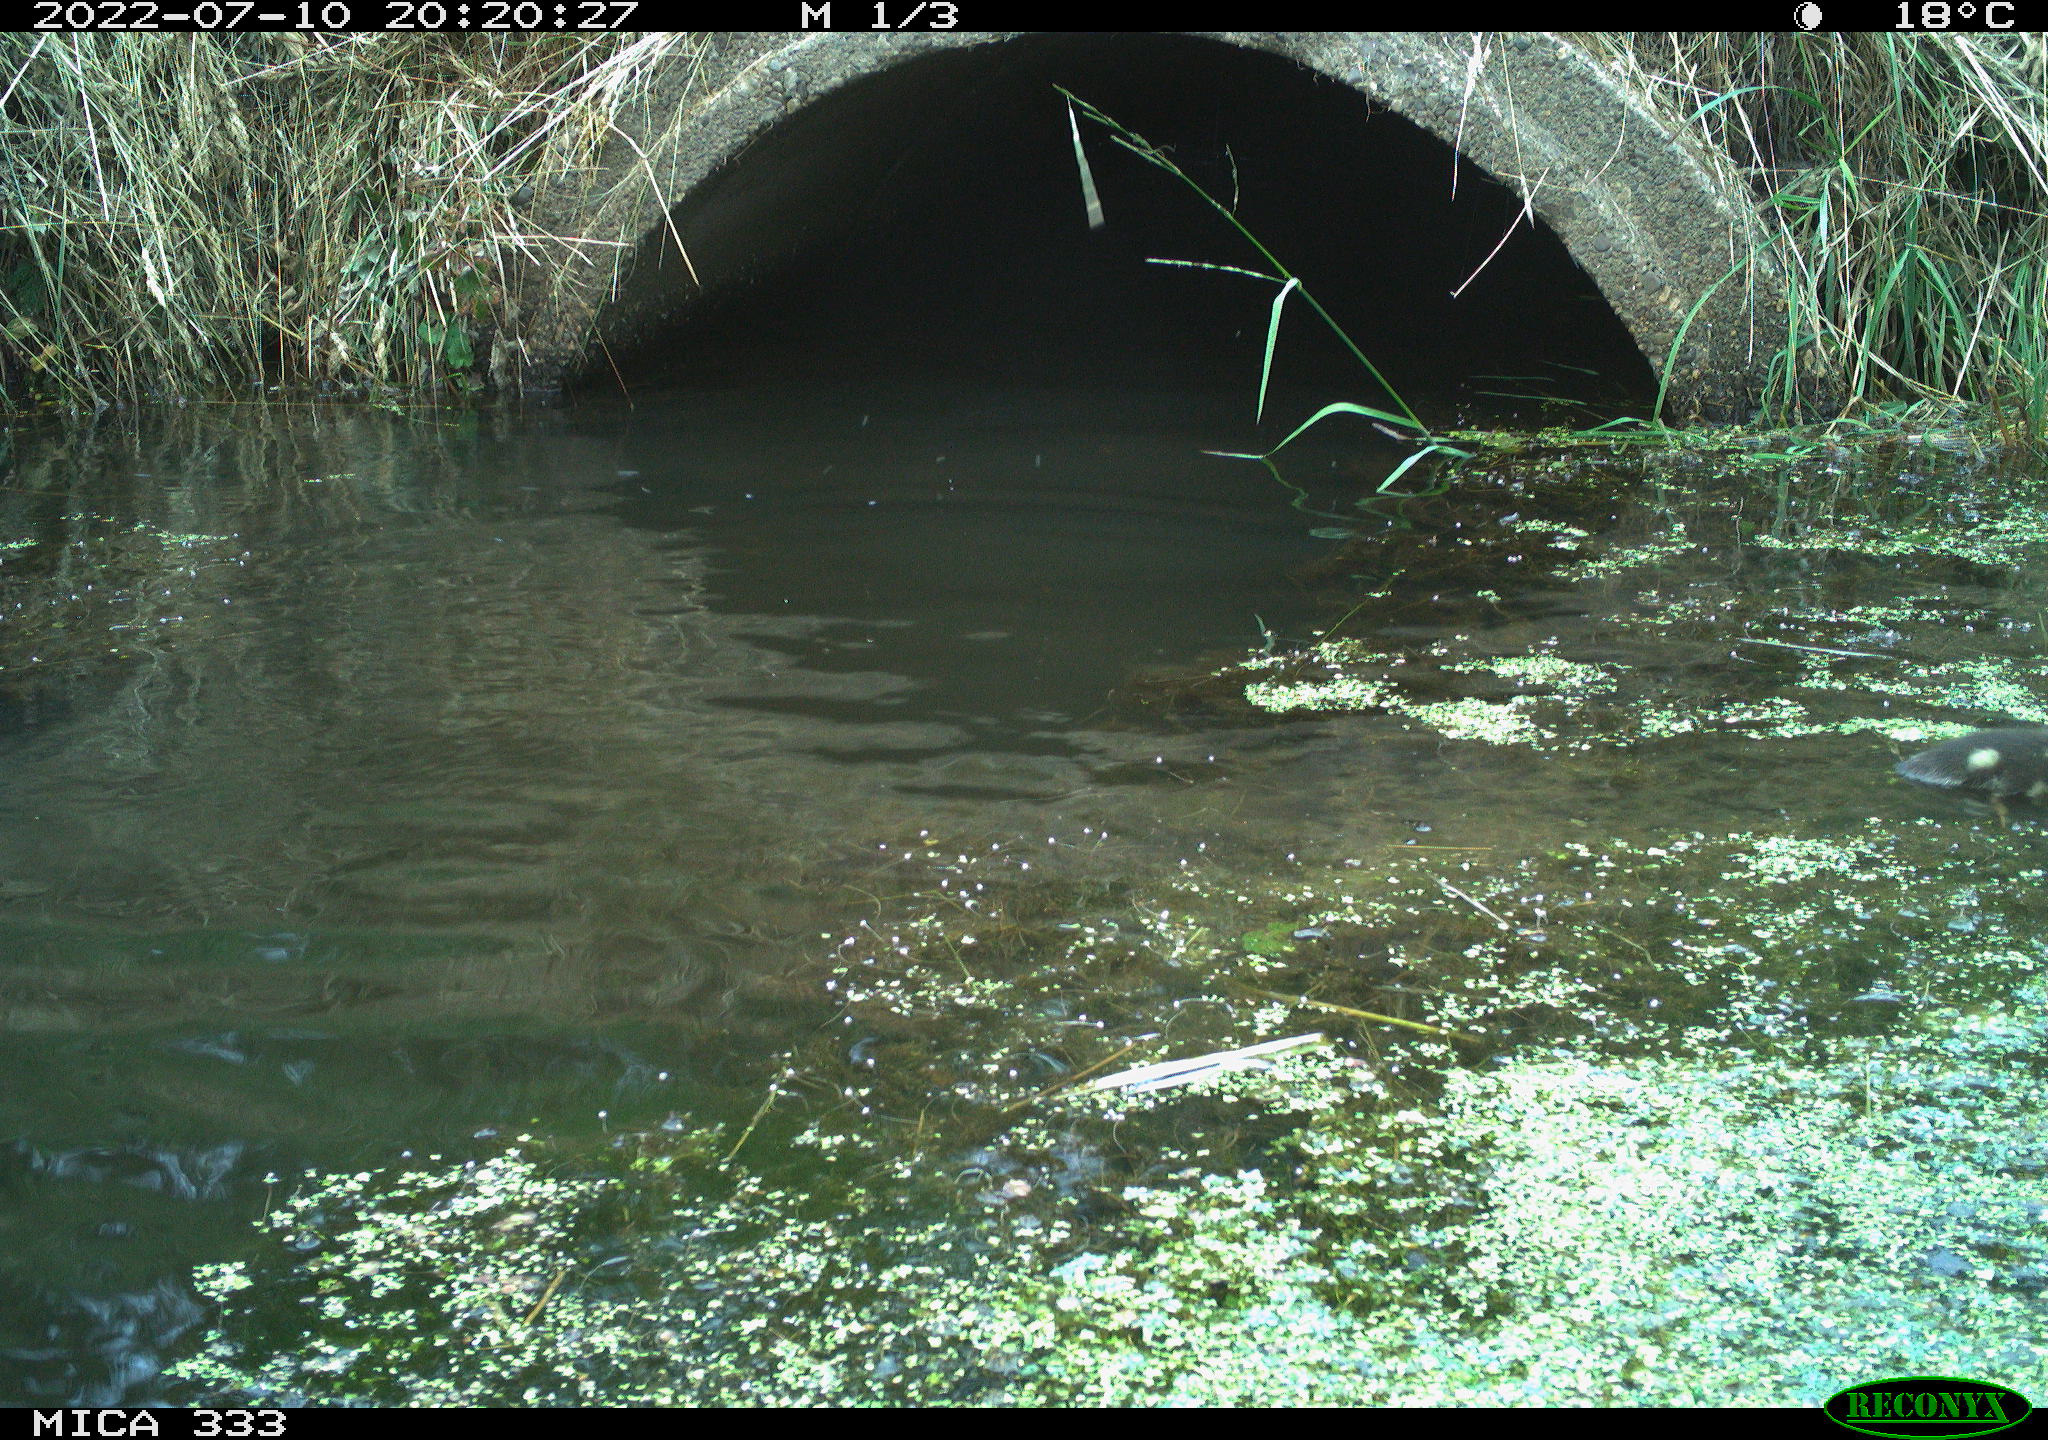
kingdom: Animalia
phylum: Chordata
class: Aves
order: Anseriformes
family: Anatidae
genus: Anas
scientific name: Anas platyrhynchos
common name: Mallard
